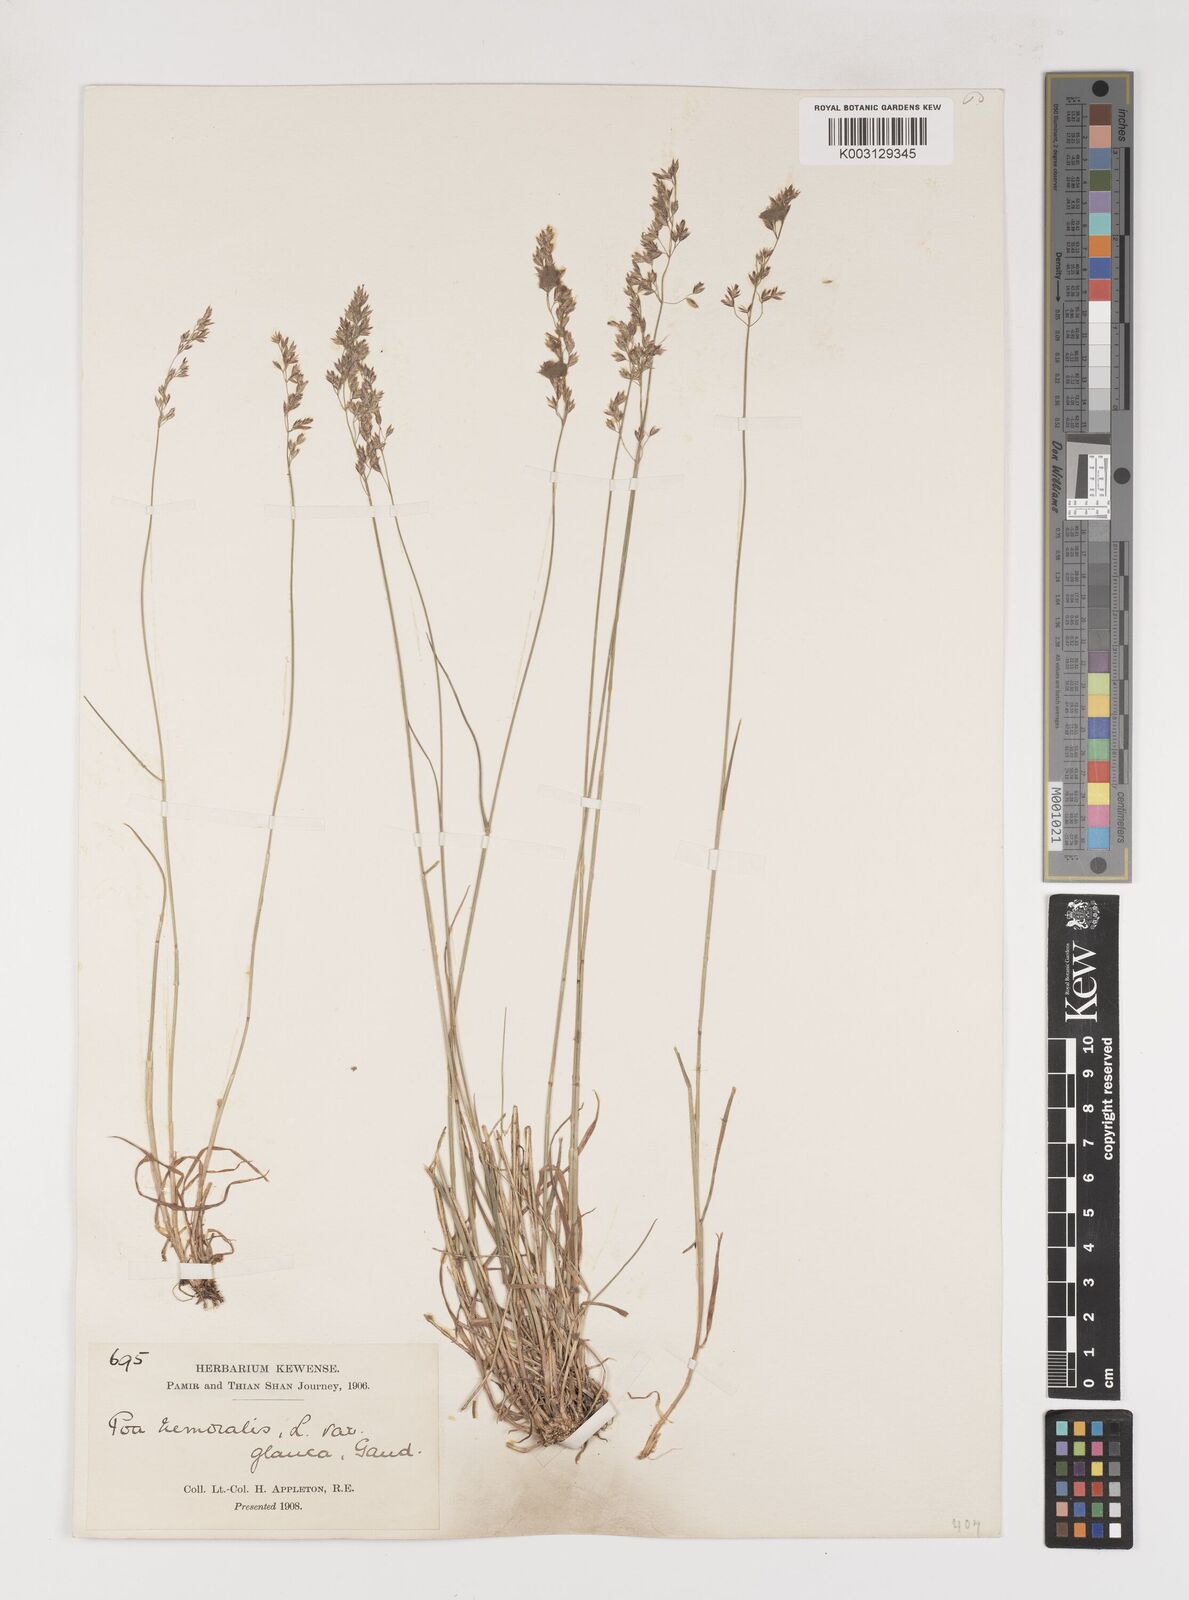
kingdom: Plantae
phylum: Tracheophyta
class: Liliopsida
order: Poales
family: Poaceae
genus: Poa
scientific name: Poa nemoralis
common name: Wood bluegrass
